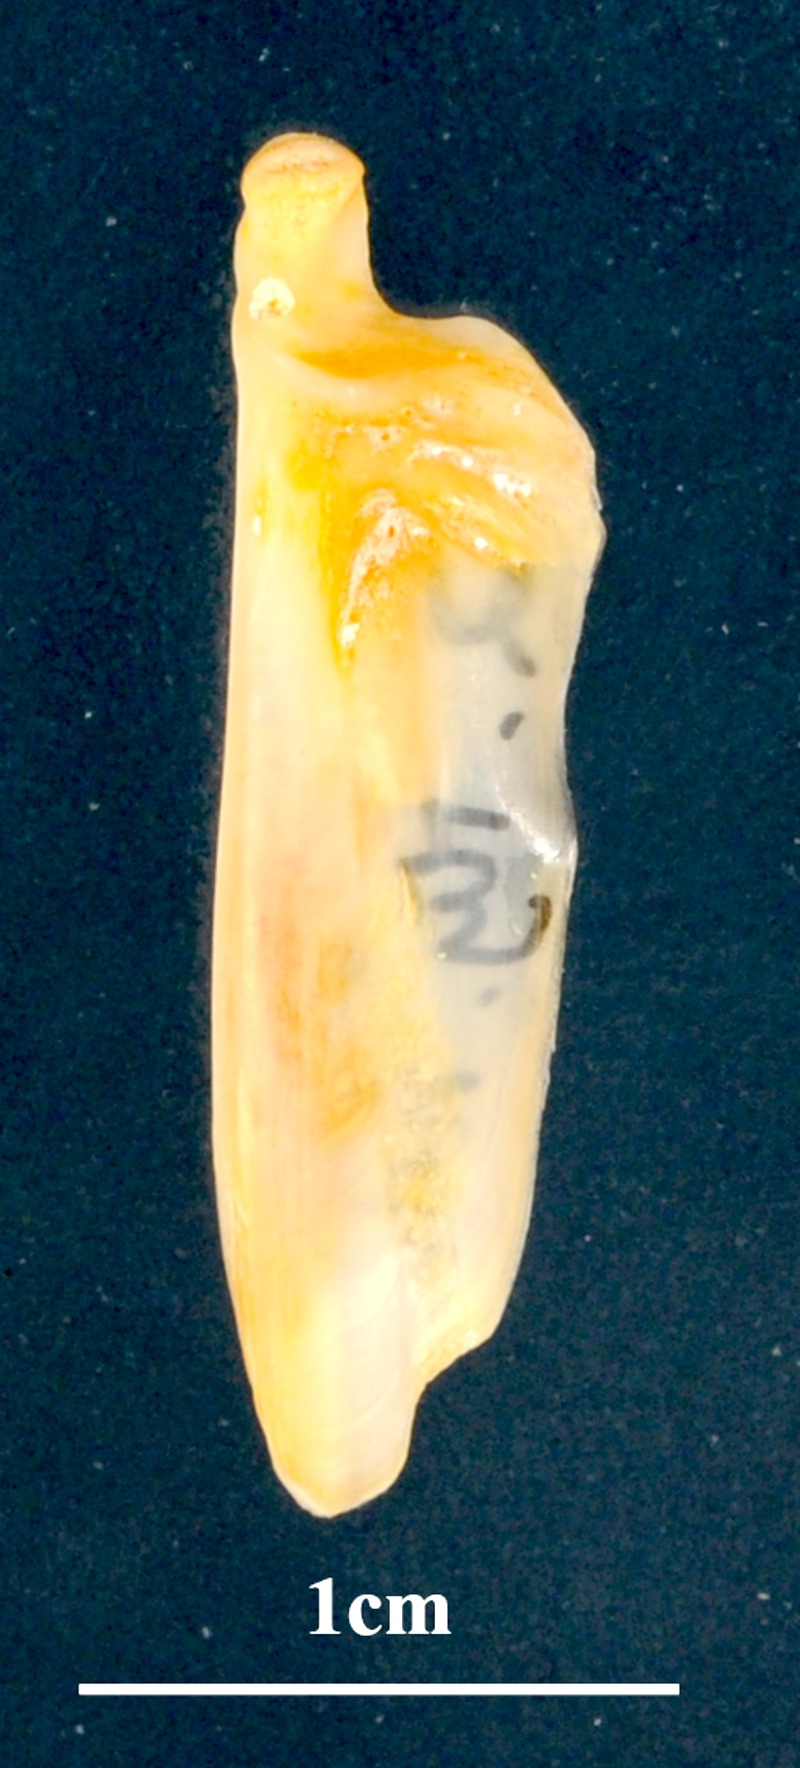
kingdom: Animalia
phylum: Chordata
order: Perciformes
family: Serranidae
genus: Mycteroperca
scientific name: Mycteroperca rubra
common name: Comb grouper
